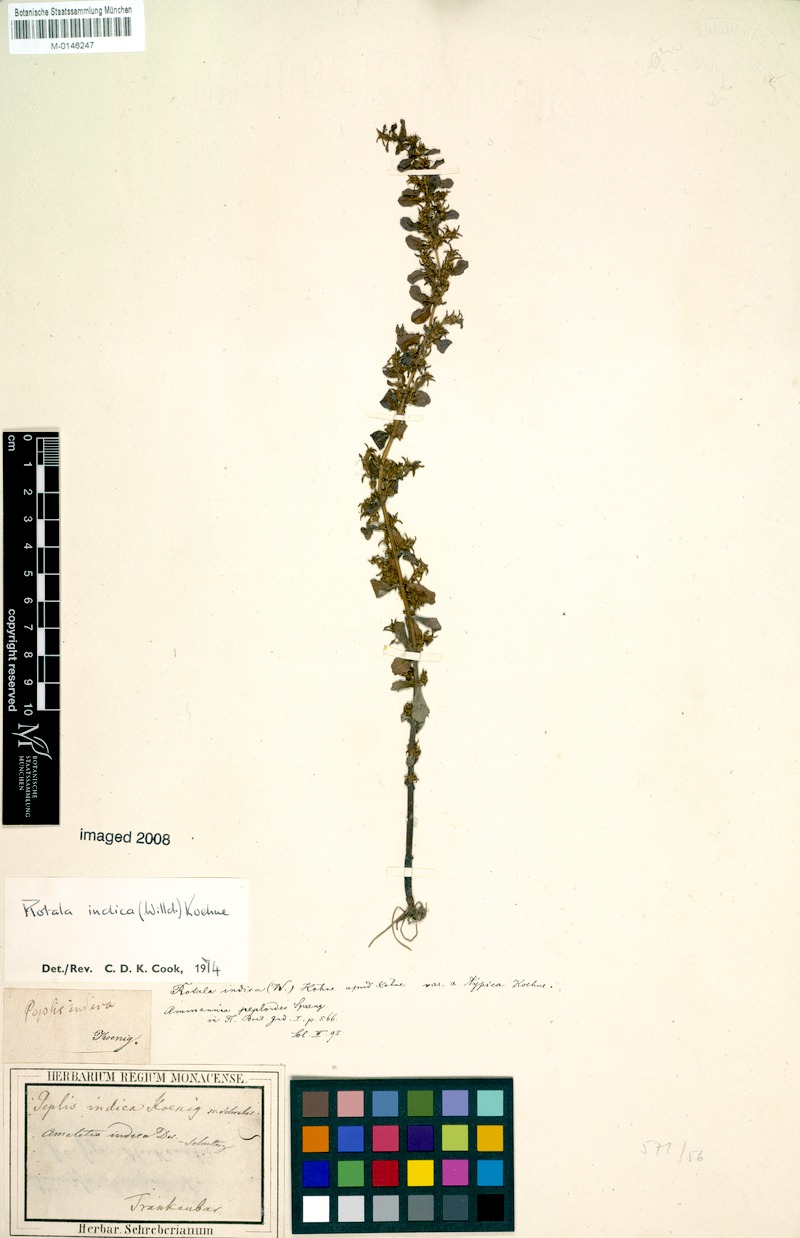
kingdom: Plantae
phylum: Tracheophyta
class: Magnoliopsida
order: Myrtales
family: Lythraceae
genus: Rotala
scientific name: Rotala indica
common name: Indian toothcup
